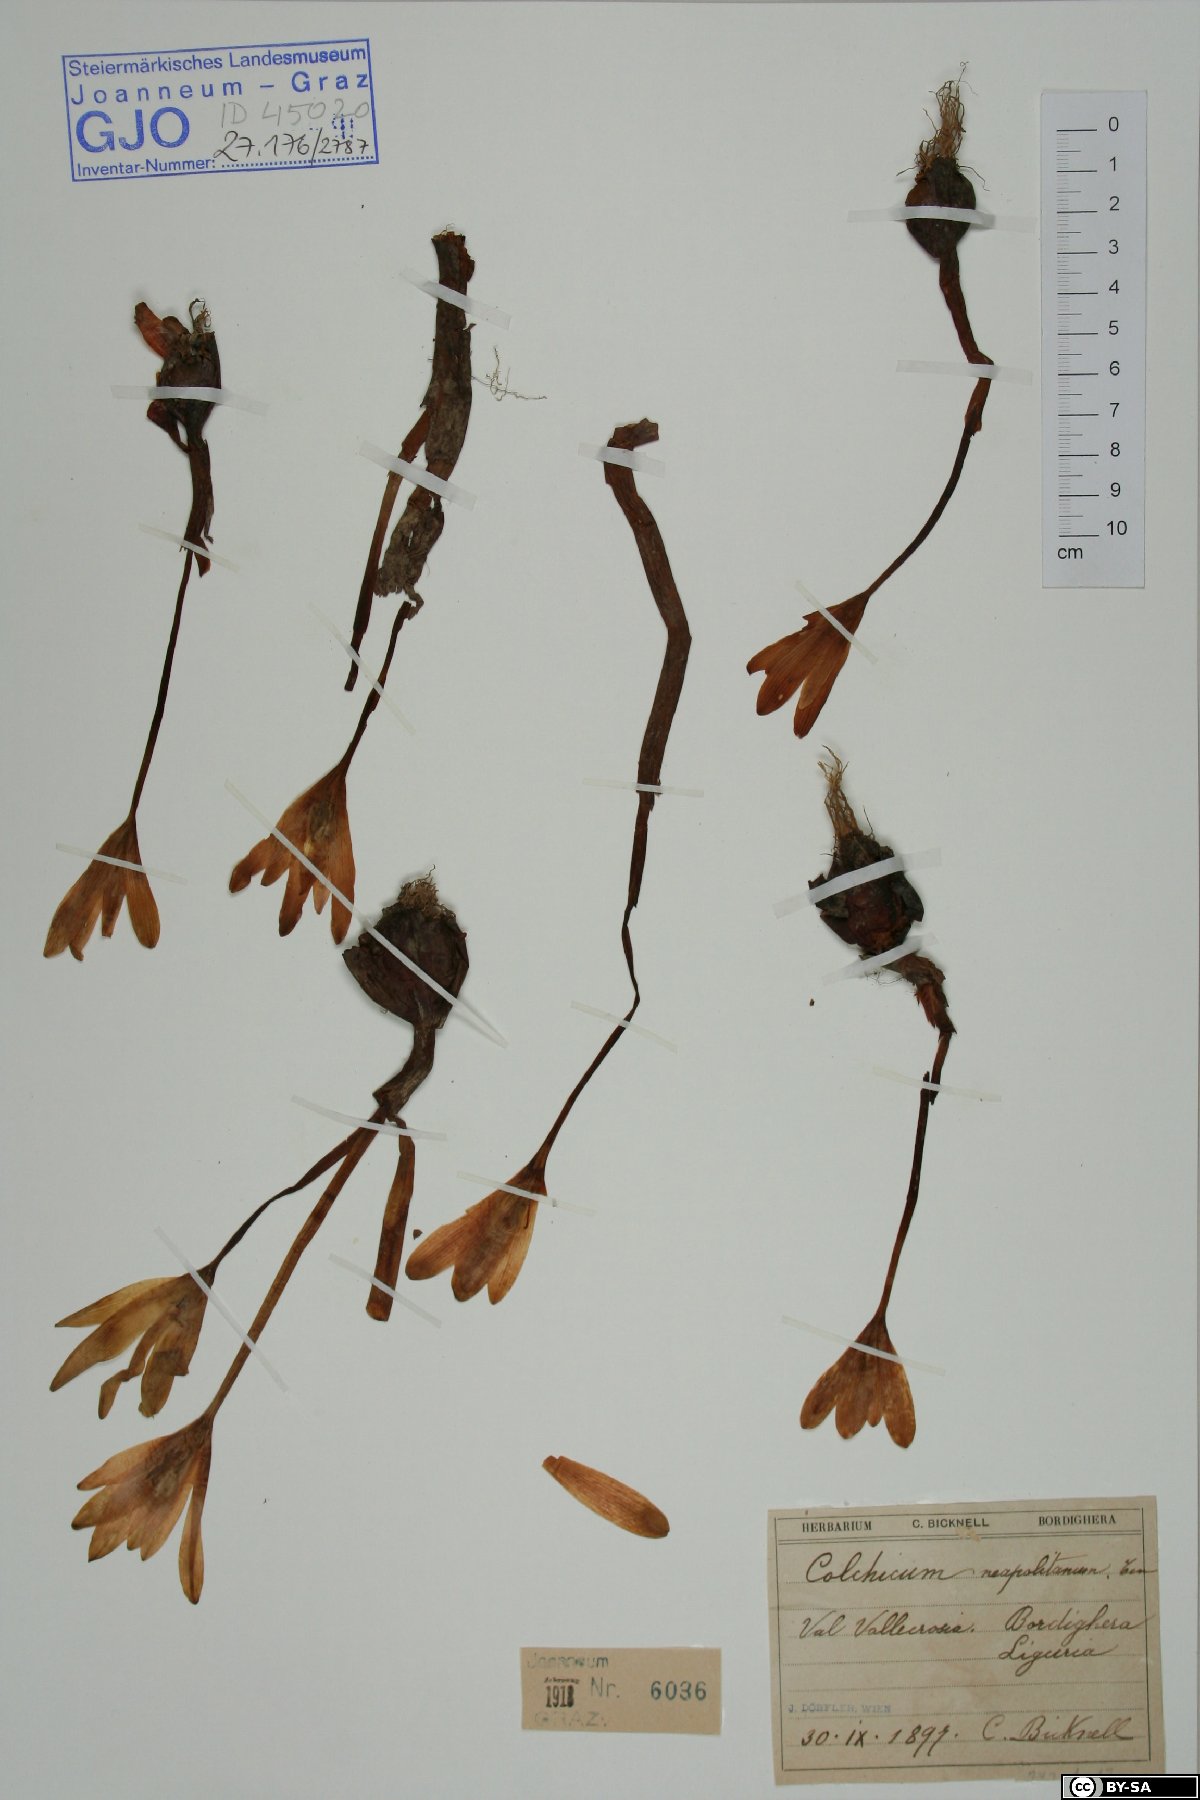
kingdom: Plantae
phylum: Tracheophyta
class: Liliopsida
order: Liliales
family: Colchicaceae
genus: Colchicum
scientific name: Colchicum neapolitanum
